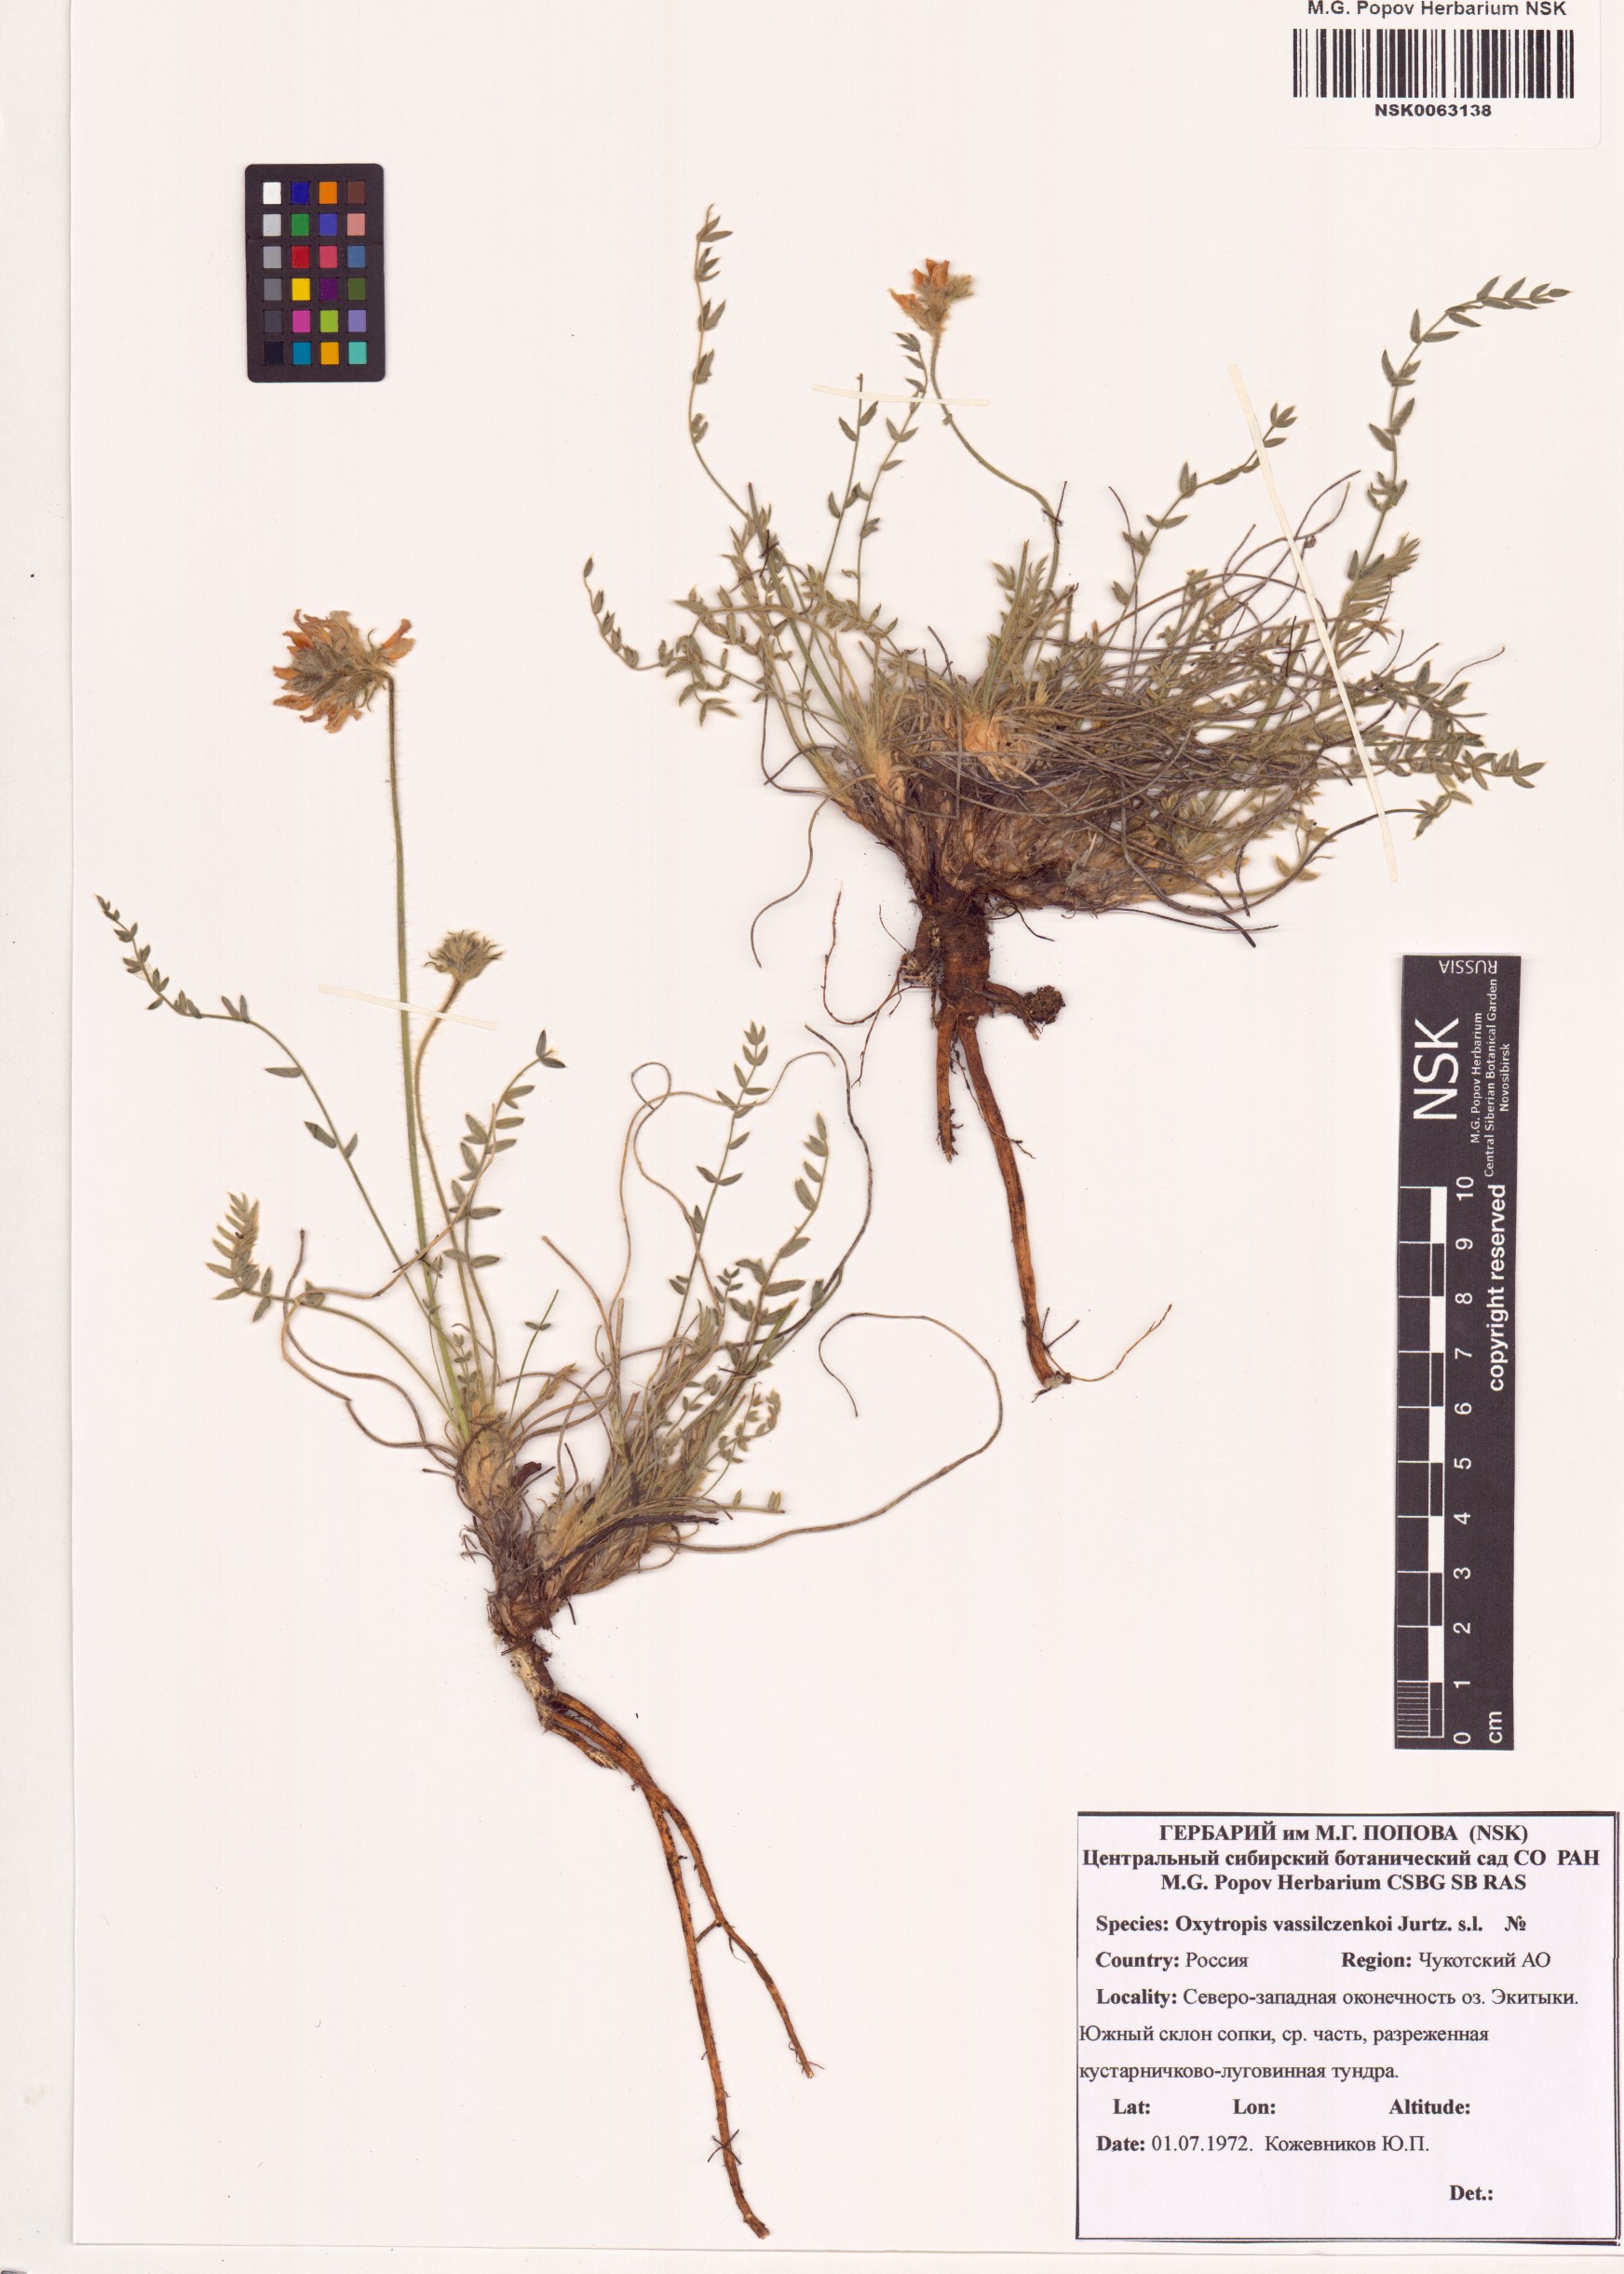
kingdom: Plantae
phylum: Tracheophyta
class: Magnoliopsida
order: Fabales
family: Fabaceae
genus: Oxytropis
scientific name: Oxytropis vassilczenkoi
